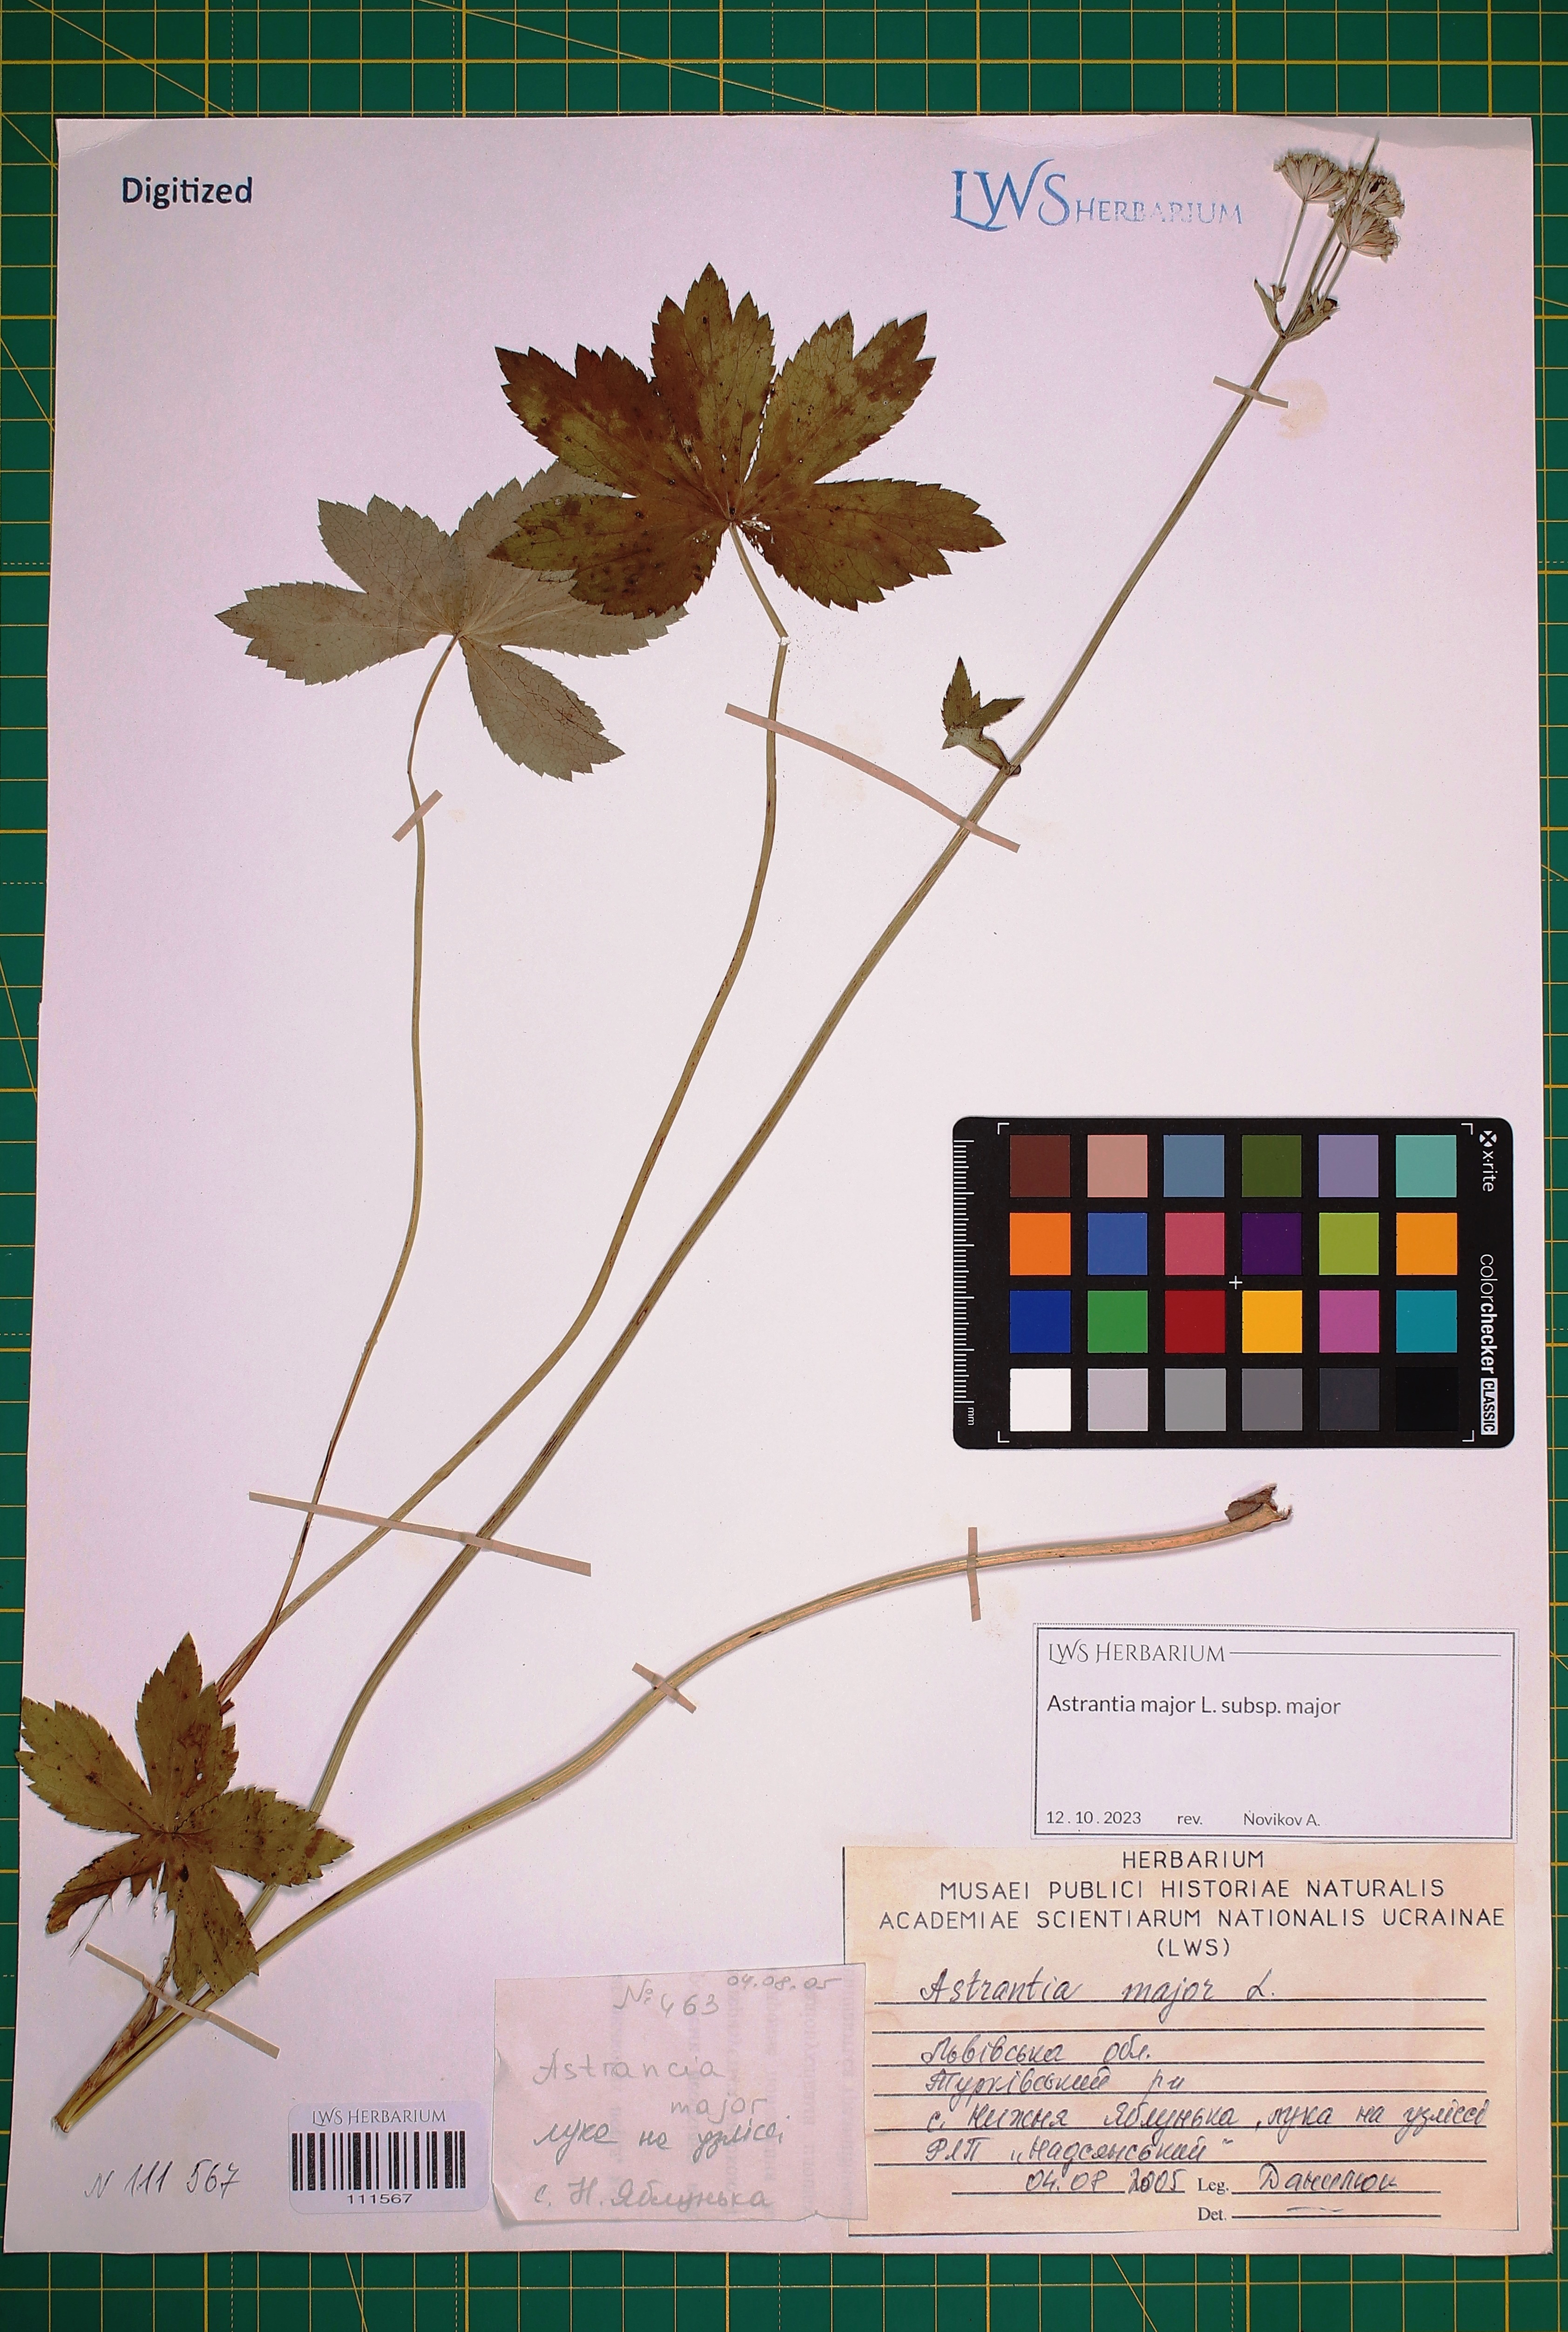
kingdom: Plantae
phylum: Tracheophyta
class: Magnoliopsida
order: Apiales
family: Apiaceae
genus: Astrantia
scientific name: Astrantia major
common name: Greater masterwort
